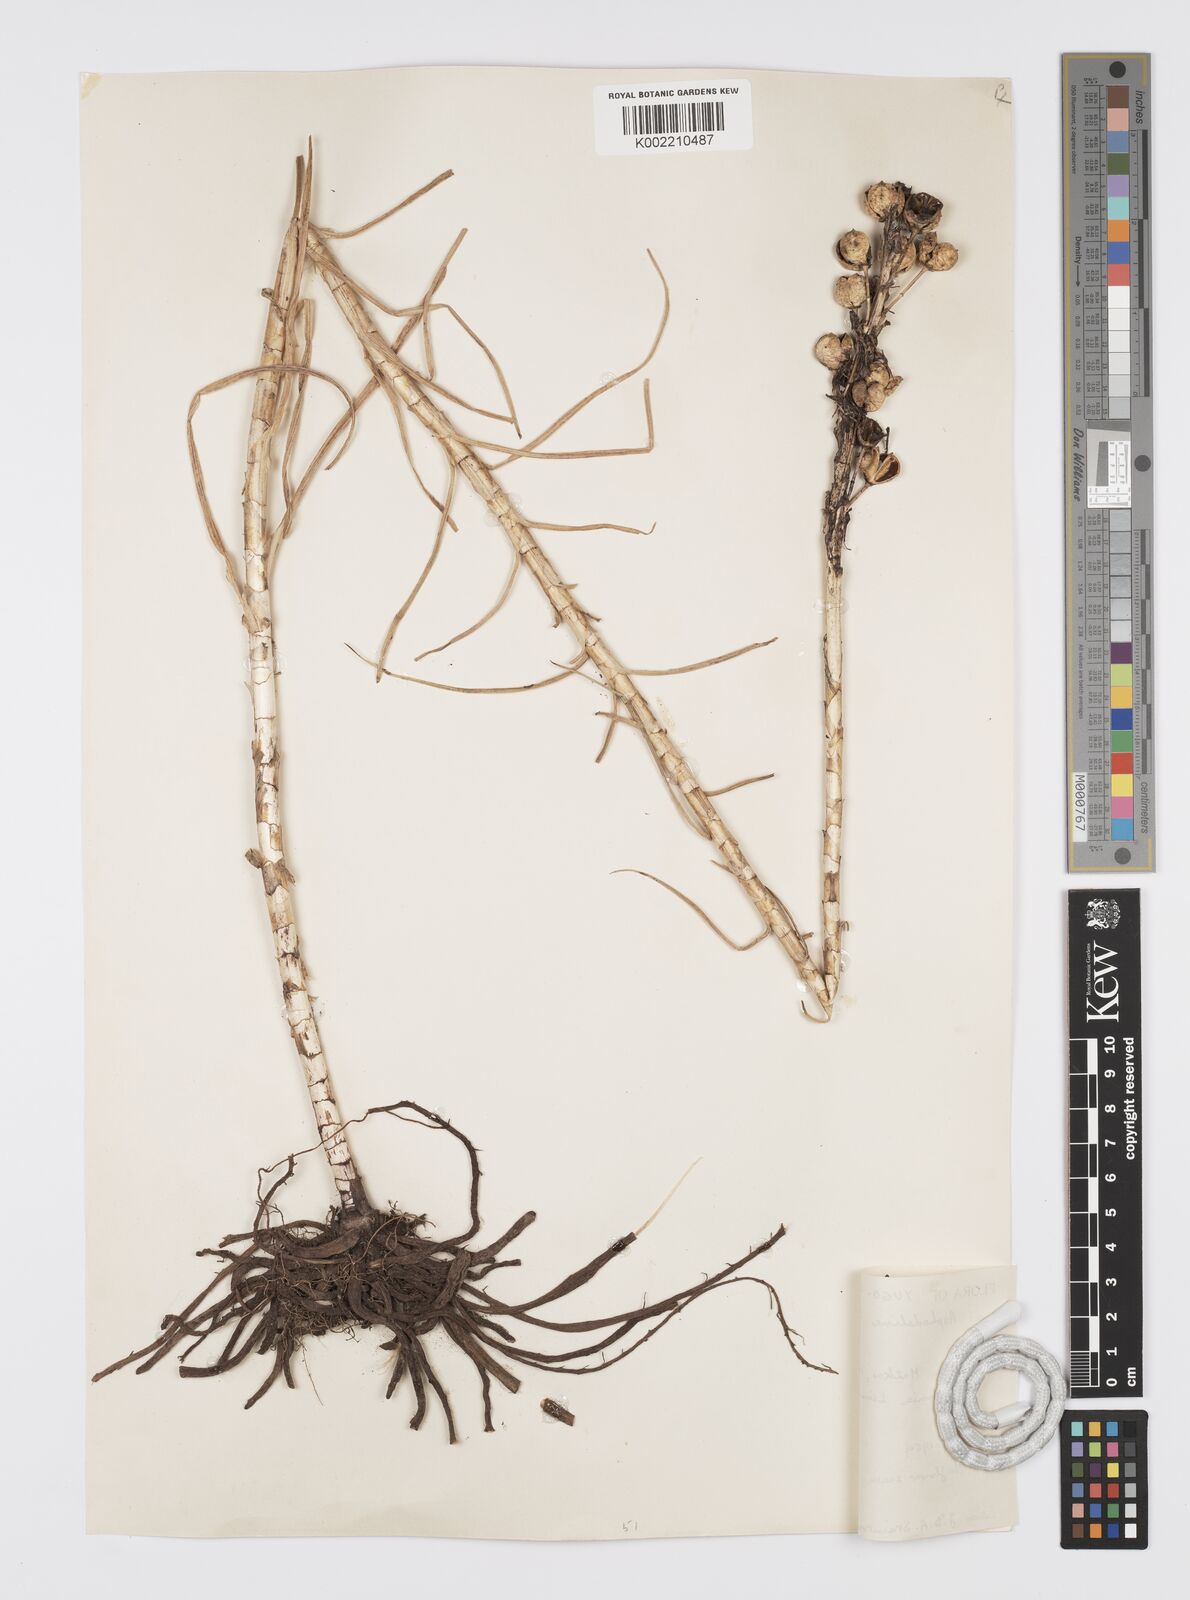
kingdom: Plantae
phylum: Tracheophyta
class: Liliopsida
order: Asparagales
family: Asphodelaceae
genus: Asphodeline
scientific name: Asphodeline lutea
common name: Yellow asphodel
